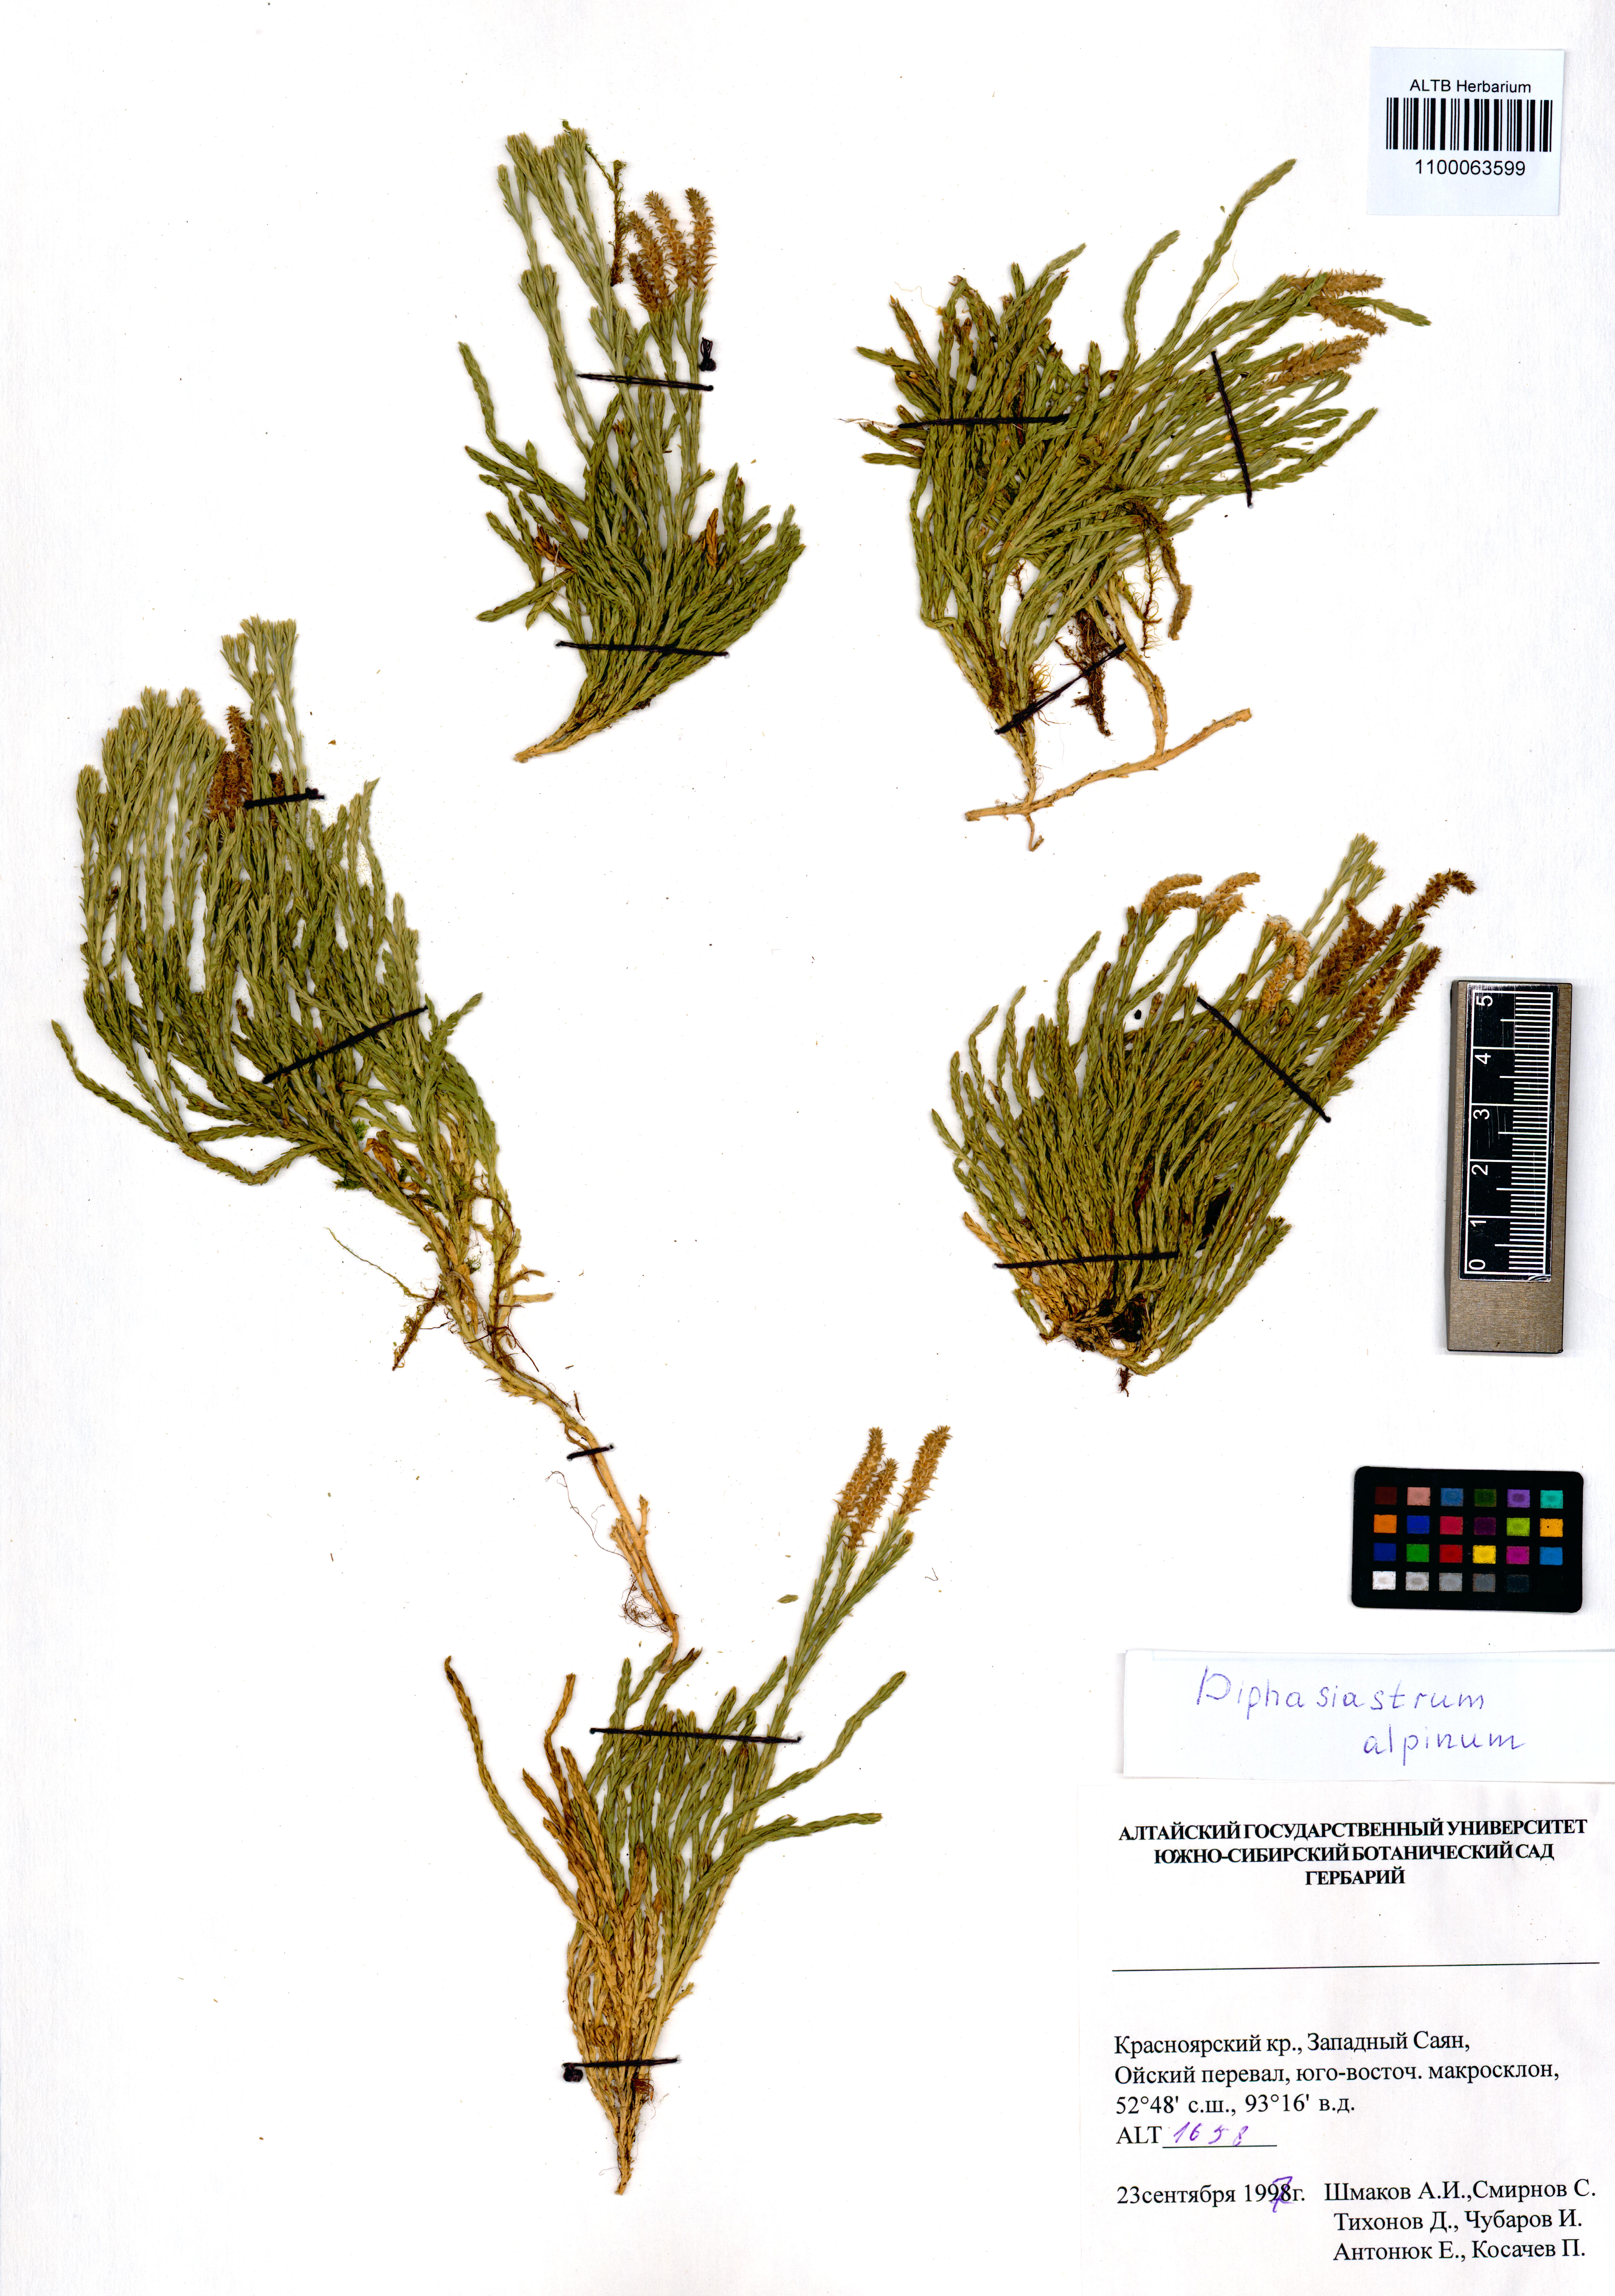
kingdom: Plantae
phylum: Tracheophyta
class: Lycopodiopsida
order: Lycopodiales
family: Lycopodiaceae
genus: Diphasiastrum
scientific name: Diphasiastrum alpinum
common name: Alpine clubmoss
